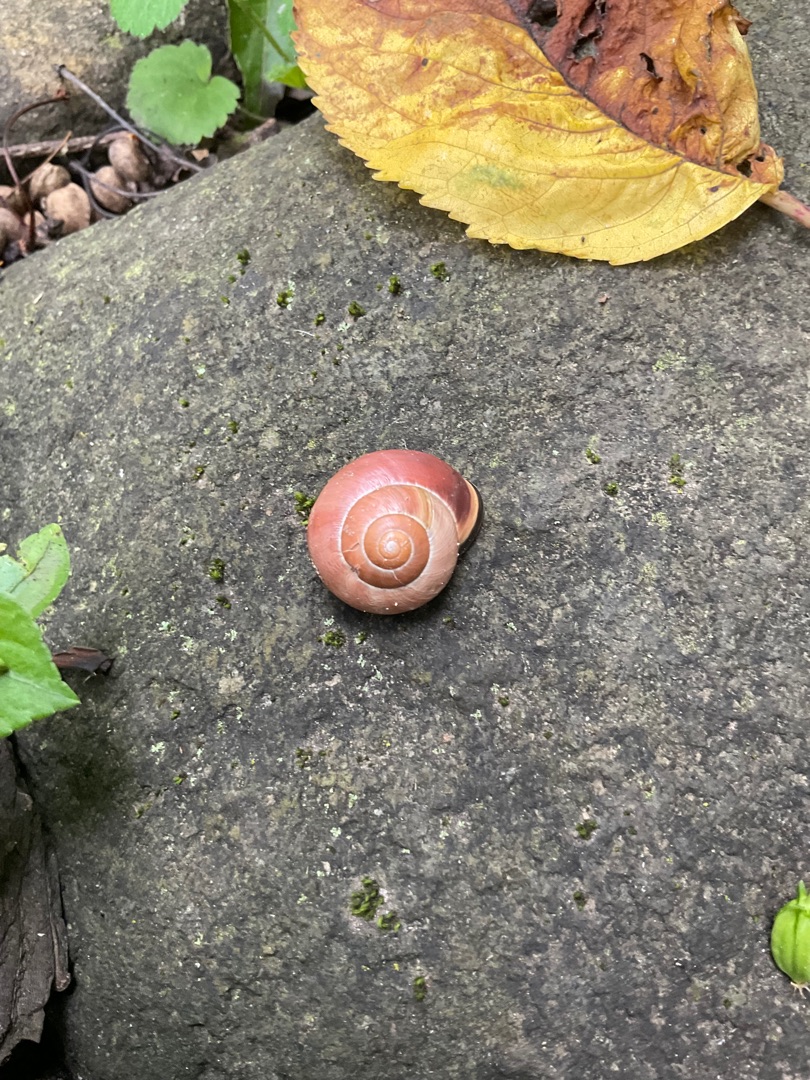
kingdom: Animalia
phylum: Mollusca
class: Gastropoda
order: Stylommatophora
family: Helicidae
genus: Cepaea
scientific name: Cepaea nemoralis
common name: Lundsnegl
